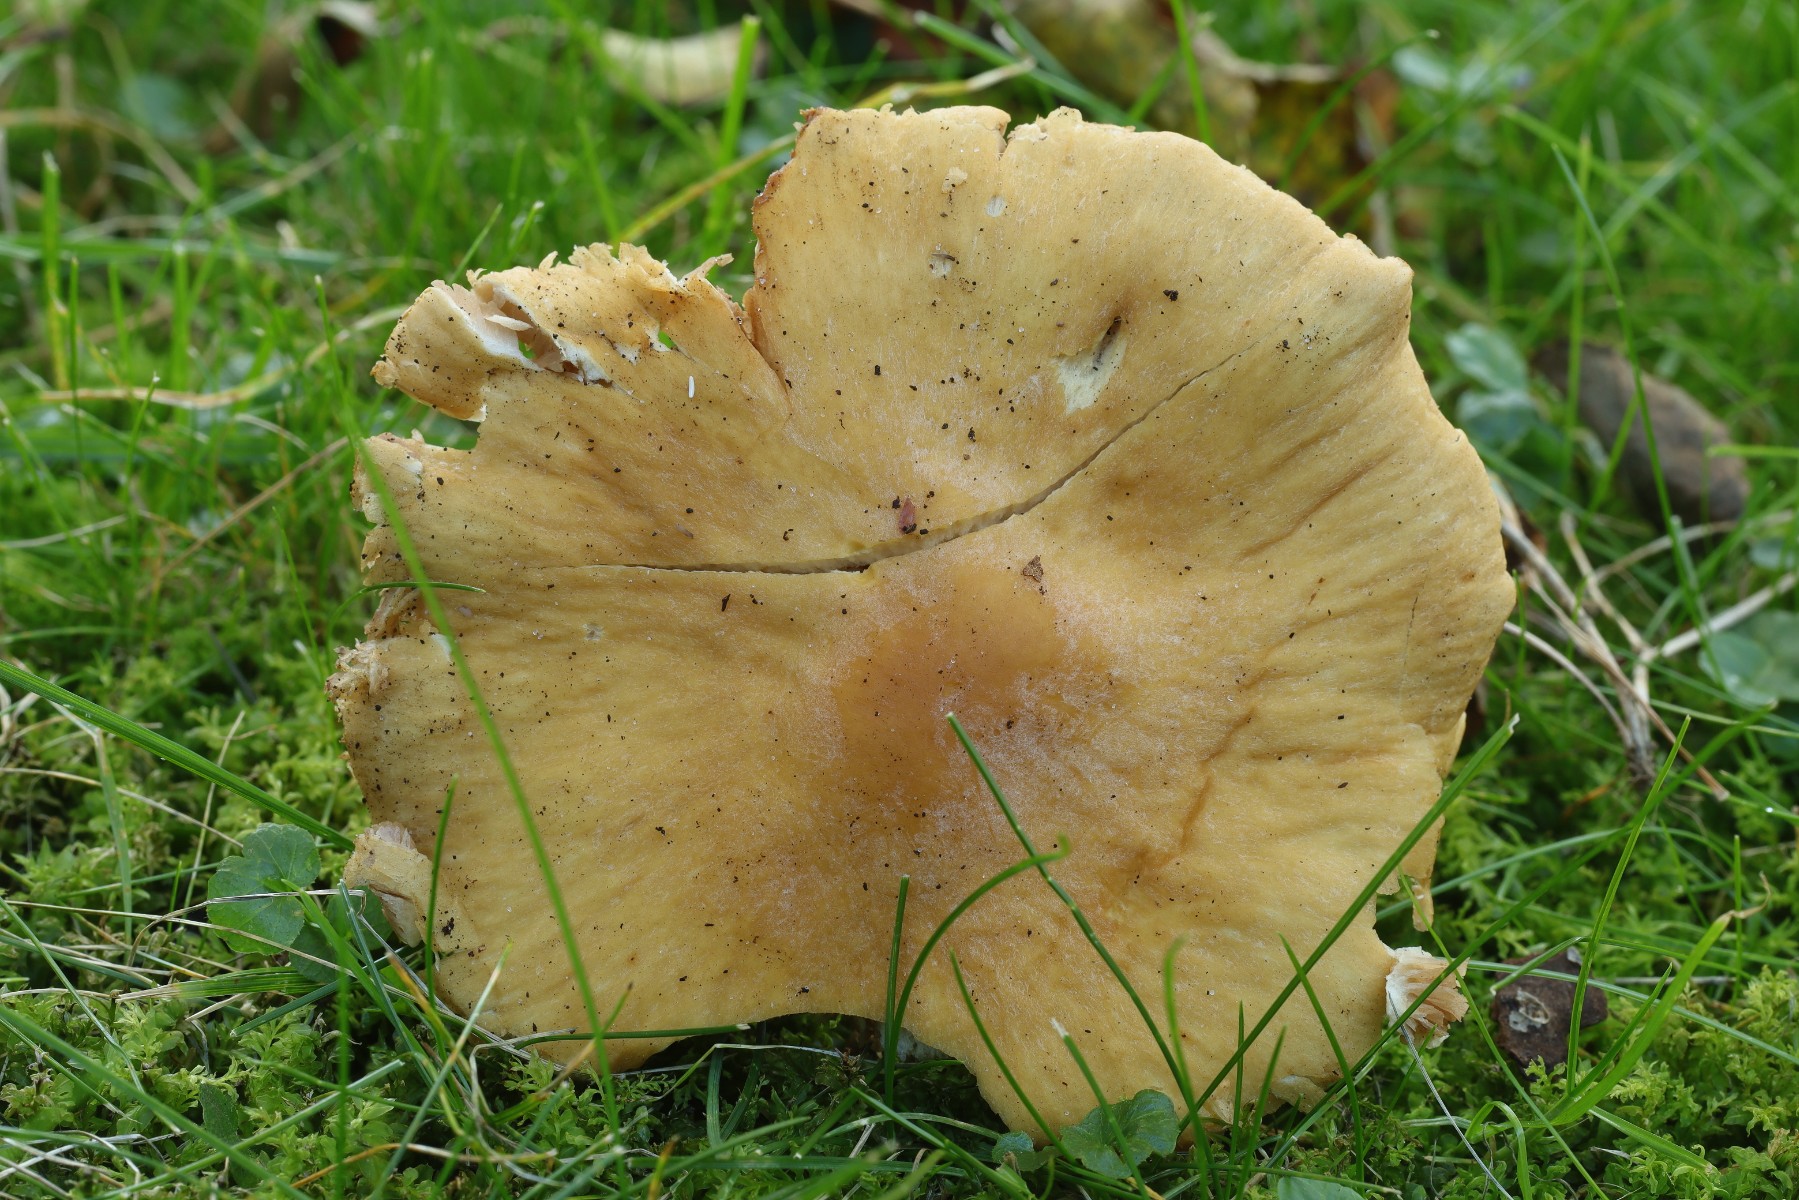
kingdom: Fungi
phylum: Basidiomycota
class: Agaricomycetes
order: Agaricales
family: Cortinariaceae
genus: Cortinarius
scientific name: Cortinarius caperatus
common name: klidhat
